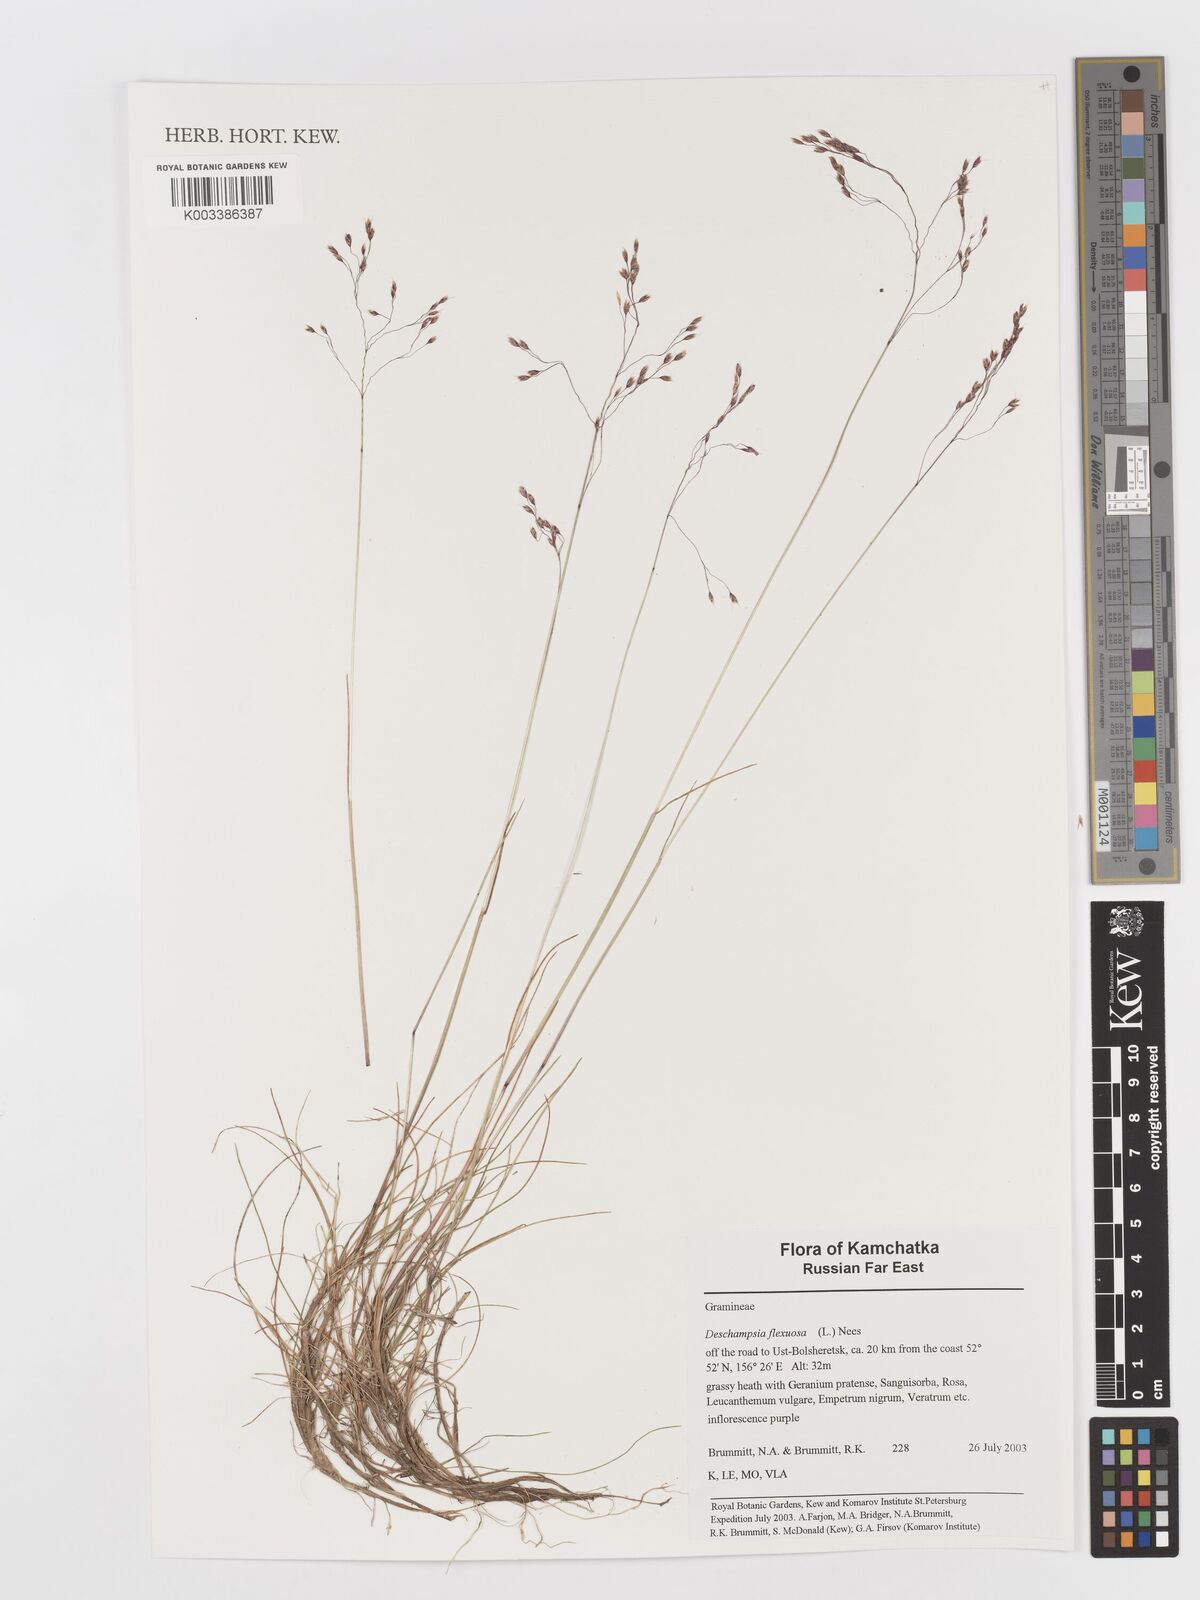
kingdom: Plantae
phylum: Tracheophyta
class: Liliopsida
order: Poales
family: Poaceae
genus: Avenella
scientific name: Avenella flexuosa
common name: Wavy hairgrass
